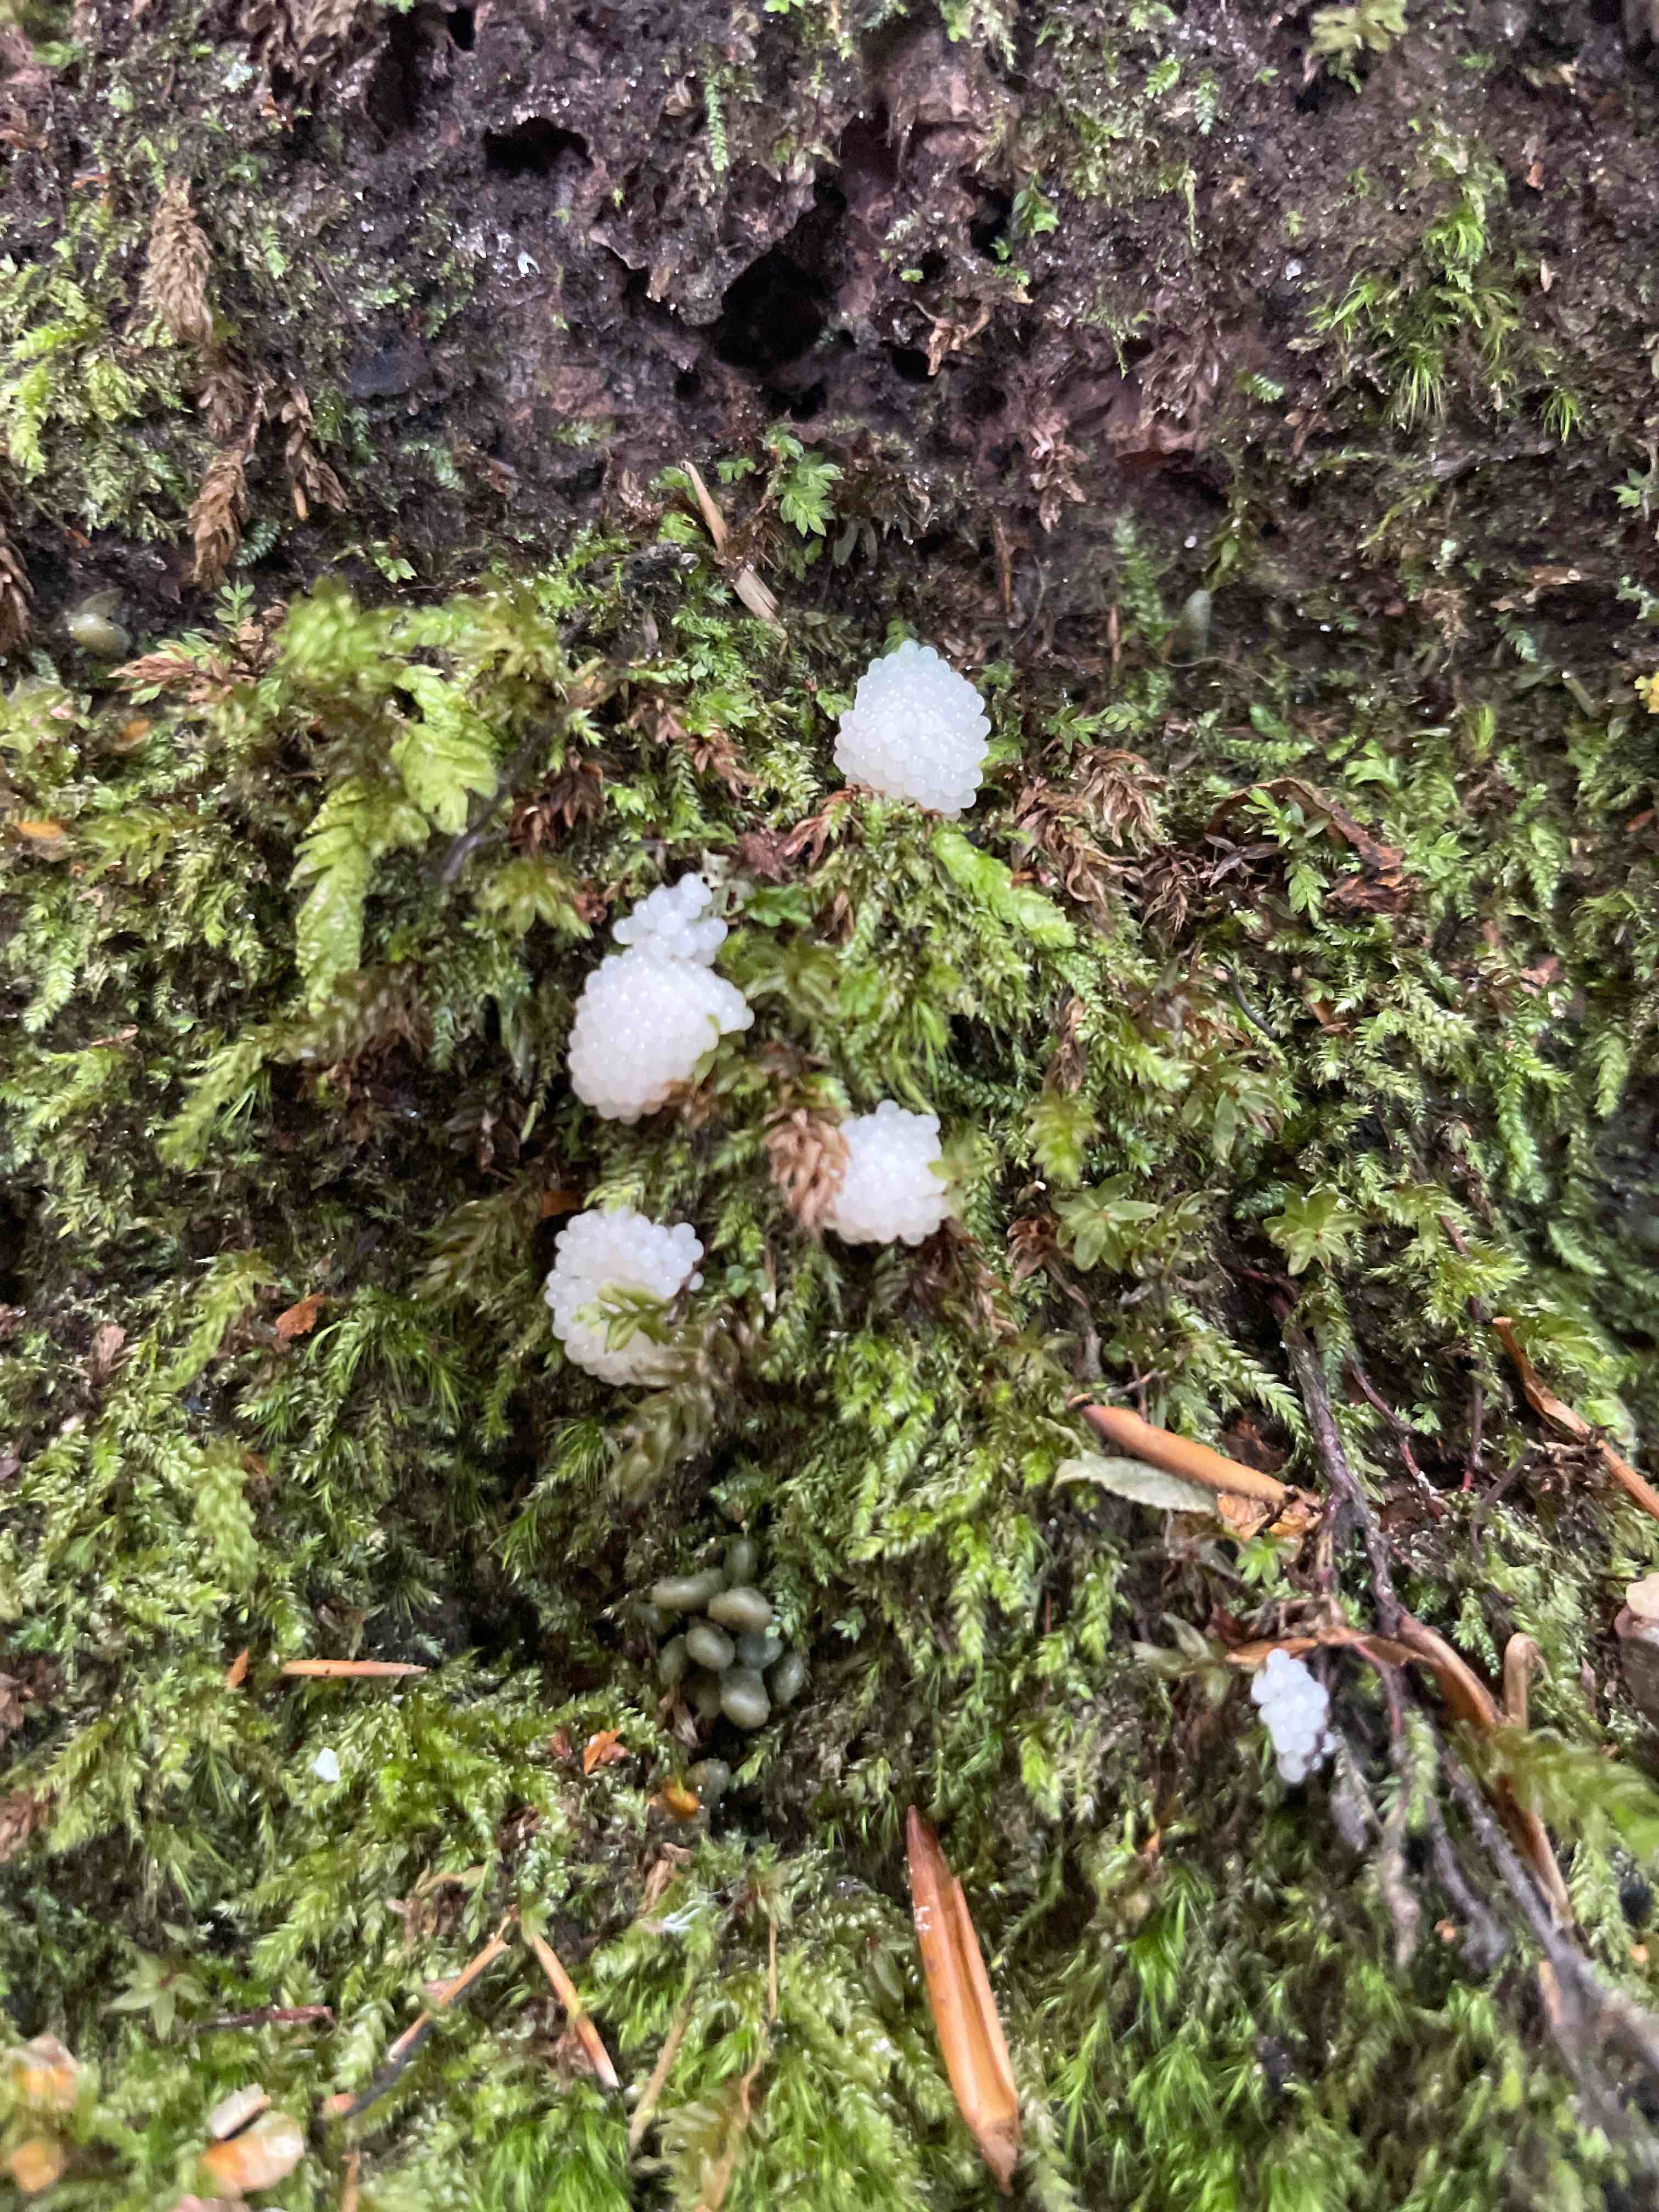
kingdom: Protozoa
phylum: Mycetozoa
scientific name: Mycetozoa
